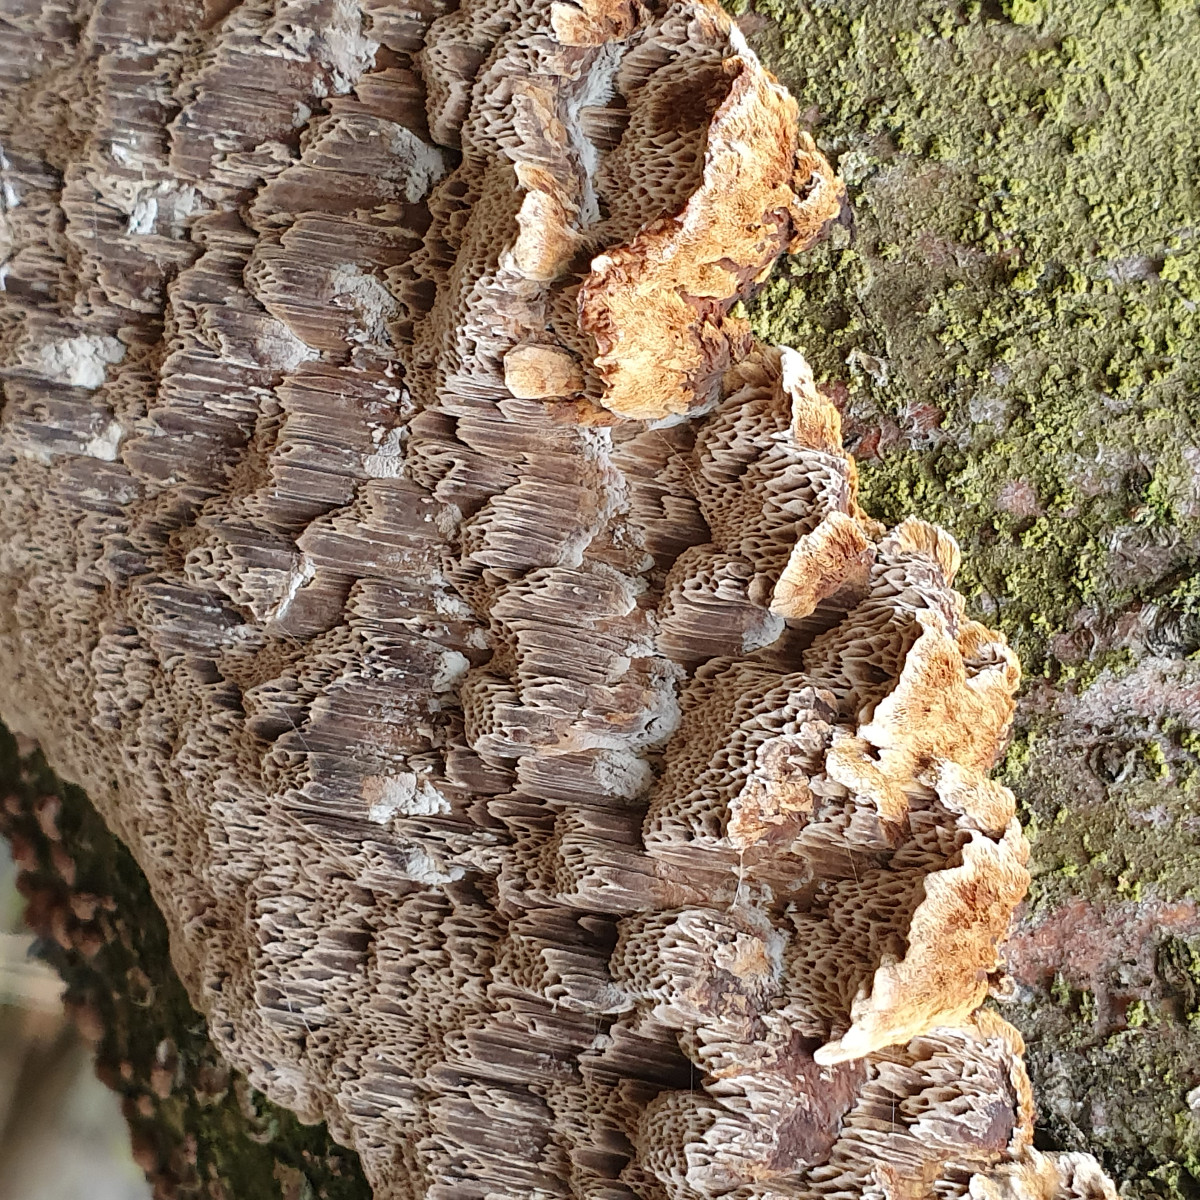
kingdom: Fungi
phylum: Basidiomycota
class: Agaricomycetes
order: Hymenochaetales
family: Hymenochaetaceae
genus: Mensularia
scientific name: Mensularia nodulosa
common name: bøge-spejlporesvamp
